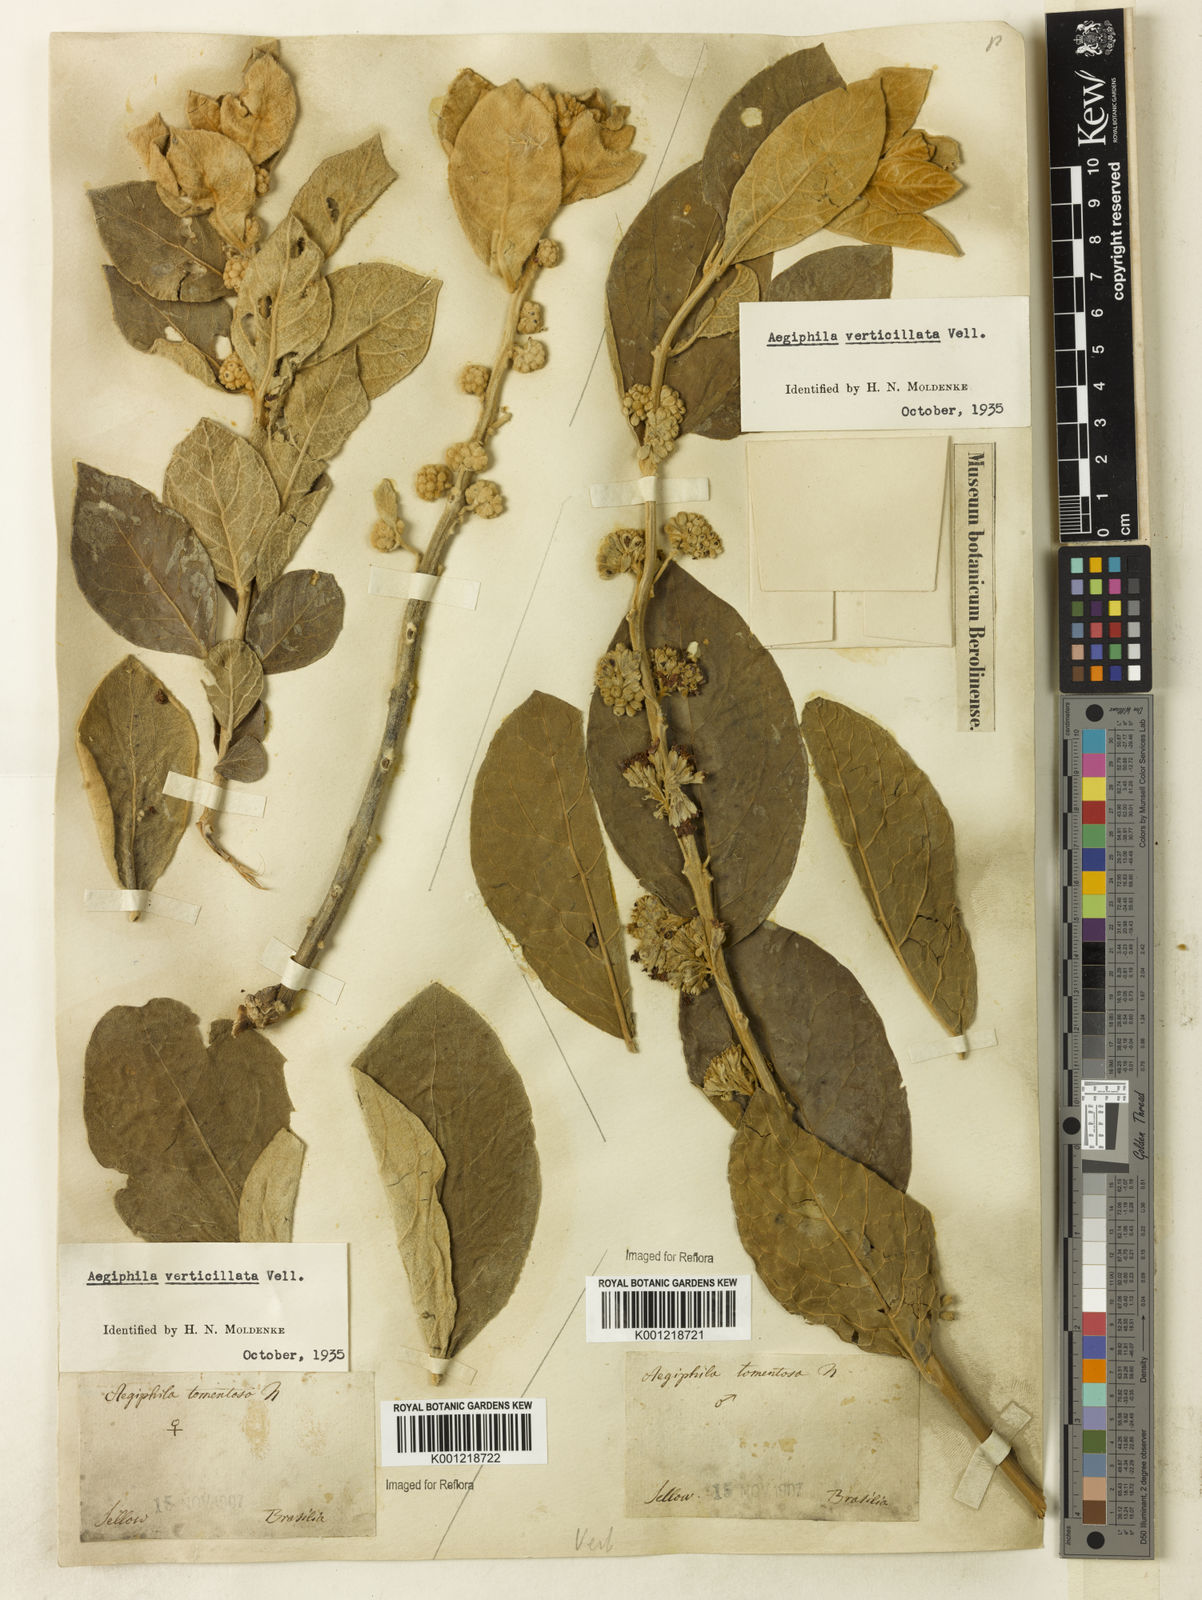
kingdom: Plantae
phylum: Tracheophyta
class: Magnoliopsida
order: Lamiales
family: Lamiaceae
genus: Aegiphila
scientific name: Aegiphila verticillata
